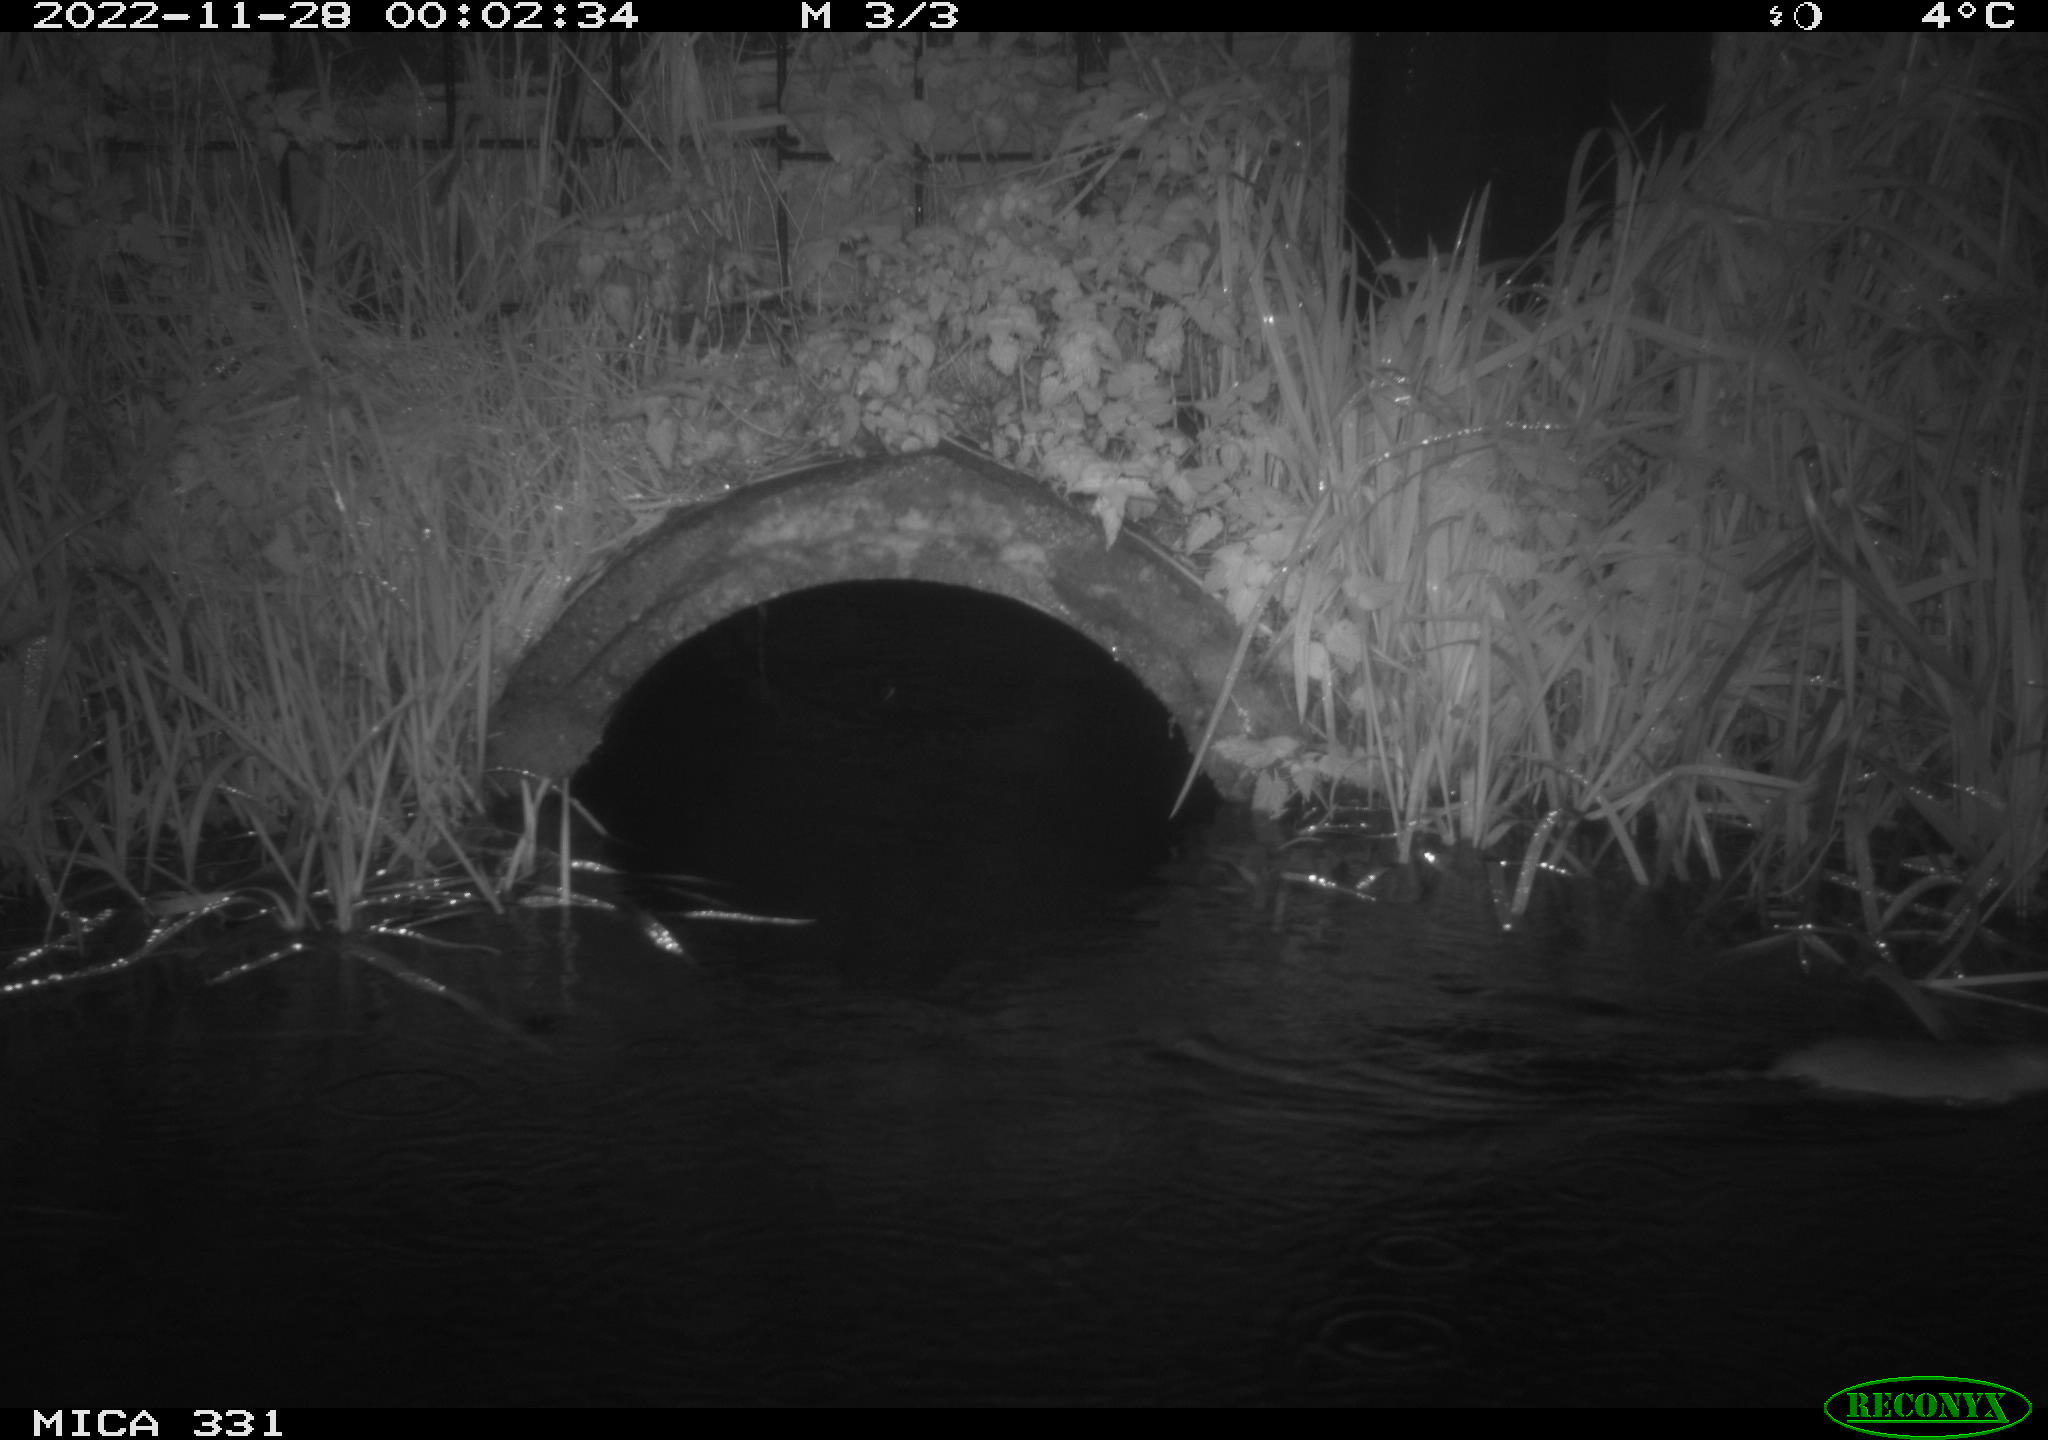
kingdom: Animalia
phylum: Chordata
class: Mammalia
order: Rodentia
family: Muridae
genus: Rattus
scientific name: Rattus norvegicus
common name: Brown rat
